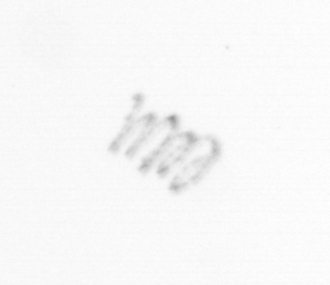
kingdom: Chromista
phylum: Ochrophyta
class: Bacillariophyceae
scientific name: Bacillariophyceae
